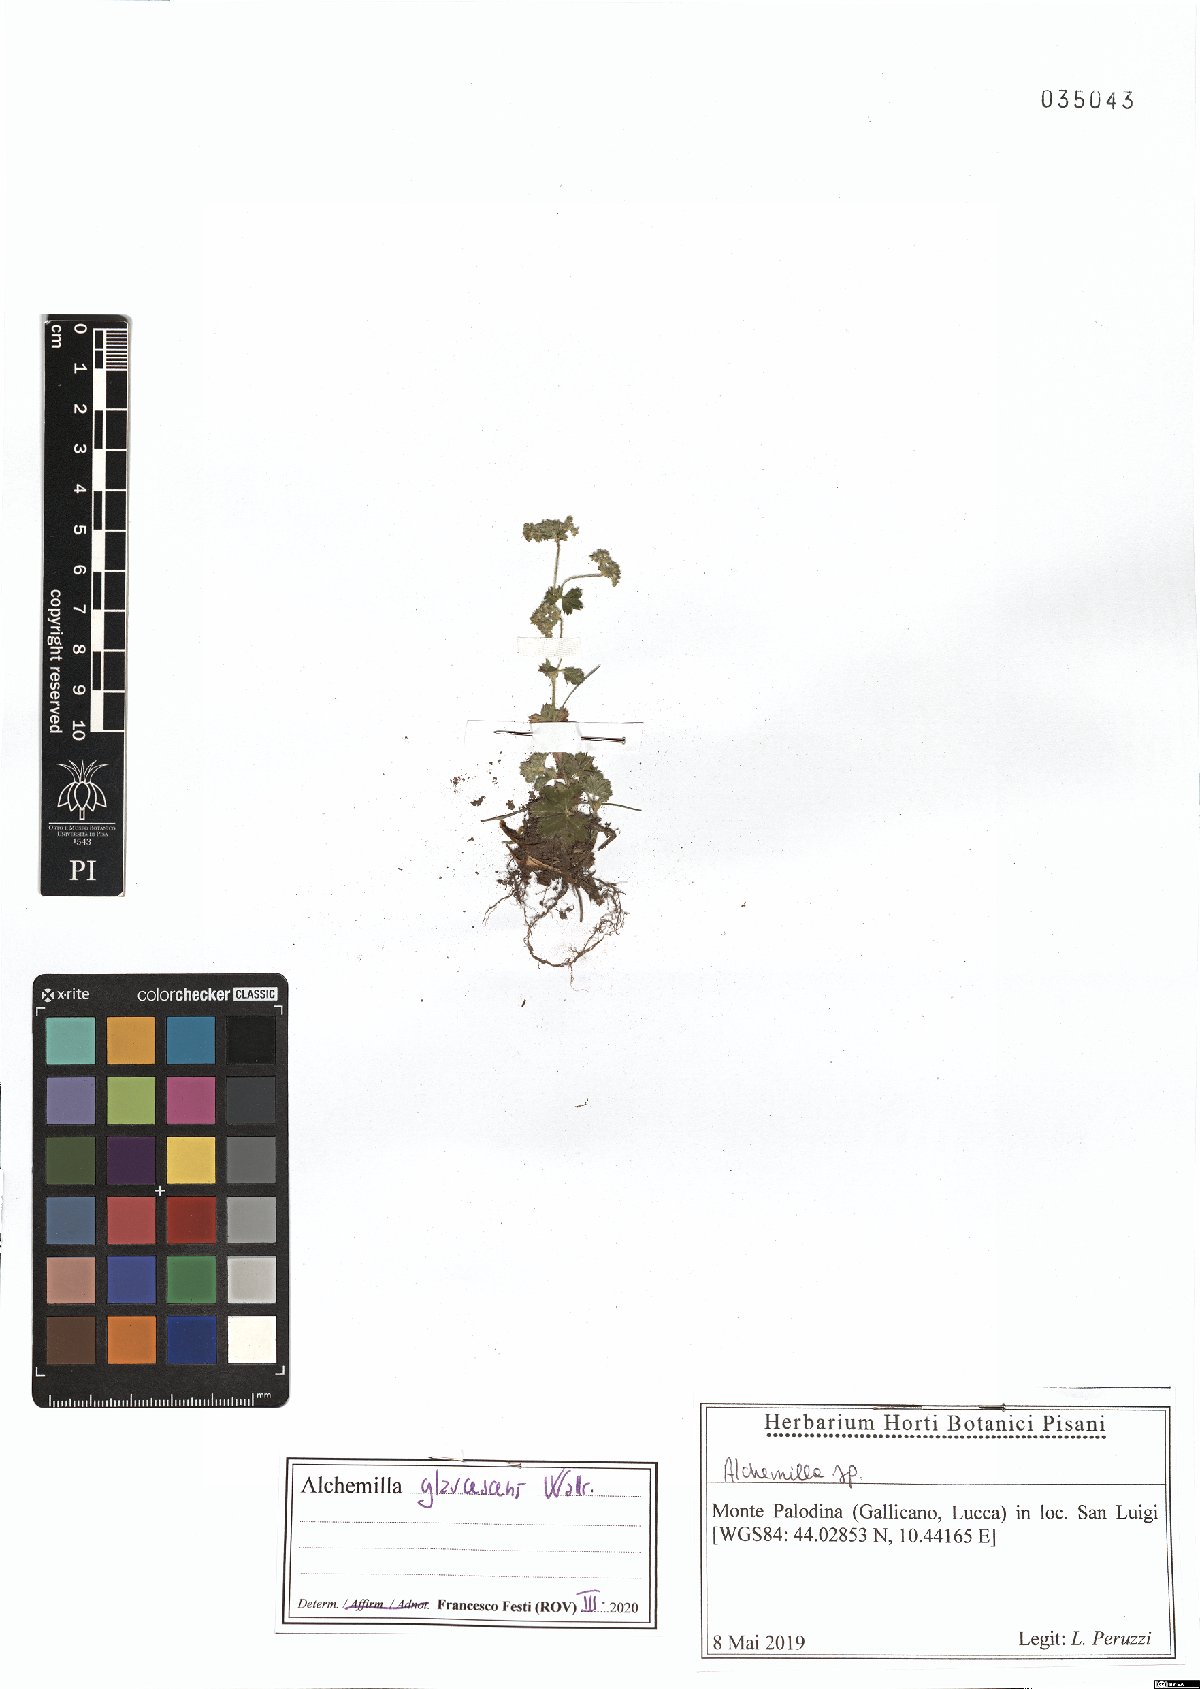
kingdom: Plantae
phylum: Tracheophyta
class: Magnoliopsida
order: Rosales
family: Rosaceae
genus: Alchemilla
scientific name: Alchemilla glaucescens
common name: Silky lady's mantle
